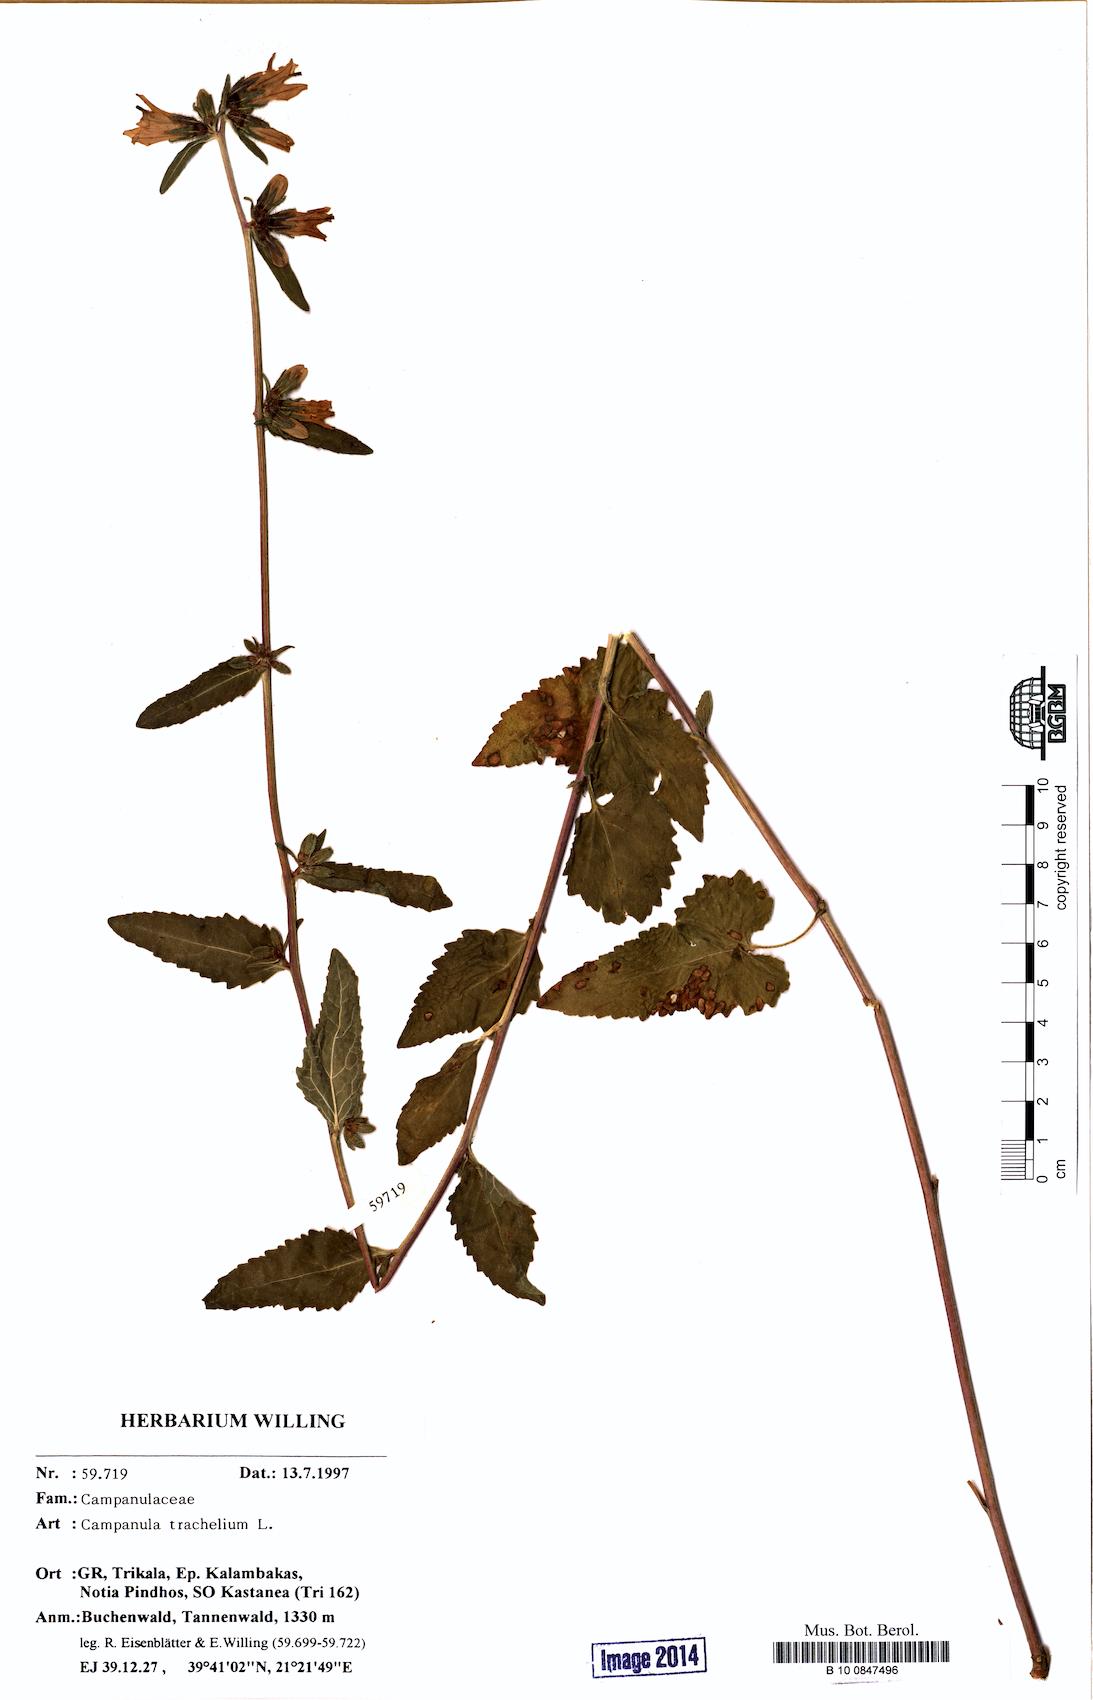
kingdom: Plantae
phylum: Tracheophyta
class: Magnoliopsida
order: Asterales
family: Campanulaceae
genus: Campanula
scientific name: Campanula trachelium
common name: Nettle-leaved bellflower
